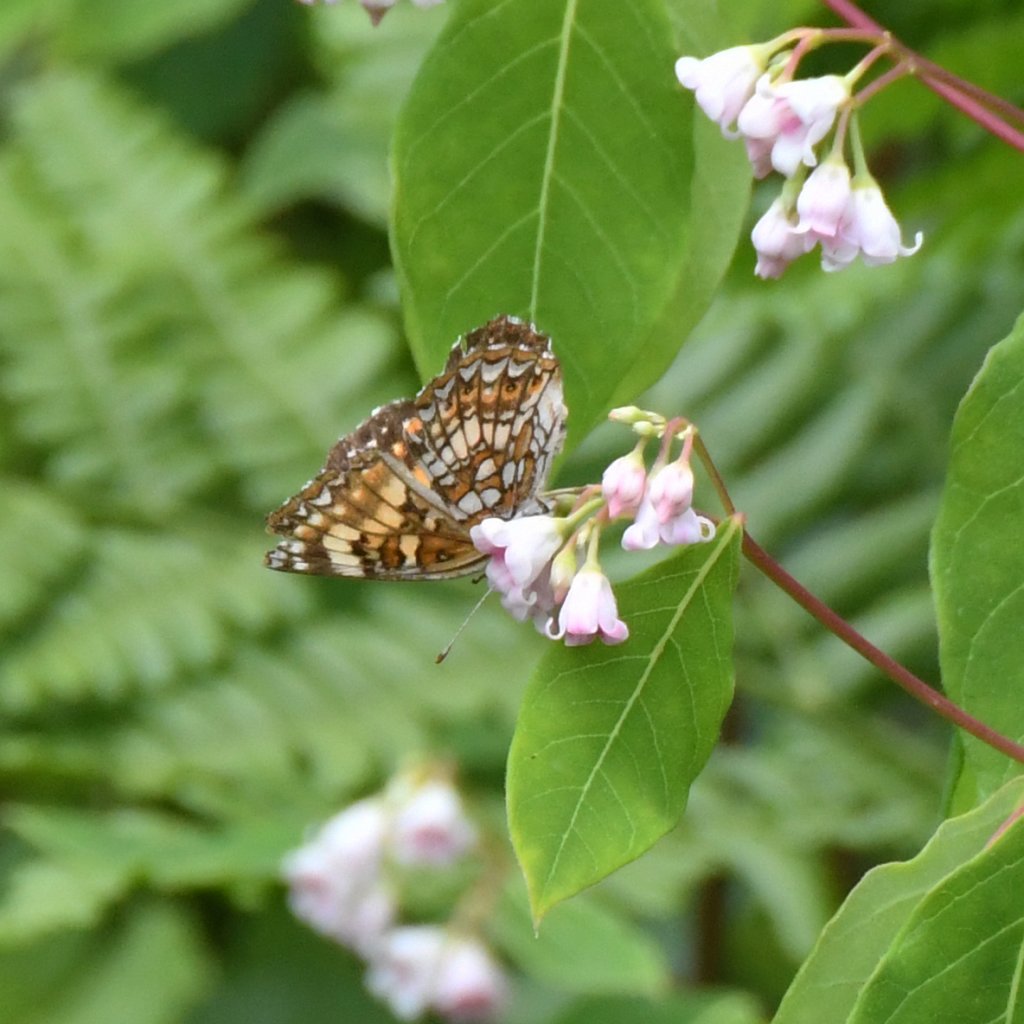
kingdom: Animalia
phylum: Arthropoda
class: Insecta
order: Lepidoptera
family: Nymphalidae
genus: Chlosyne
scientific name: Chlosyne harrisii
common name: Harris's Checkerspot
